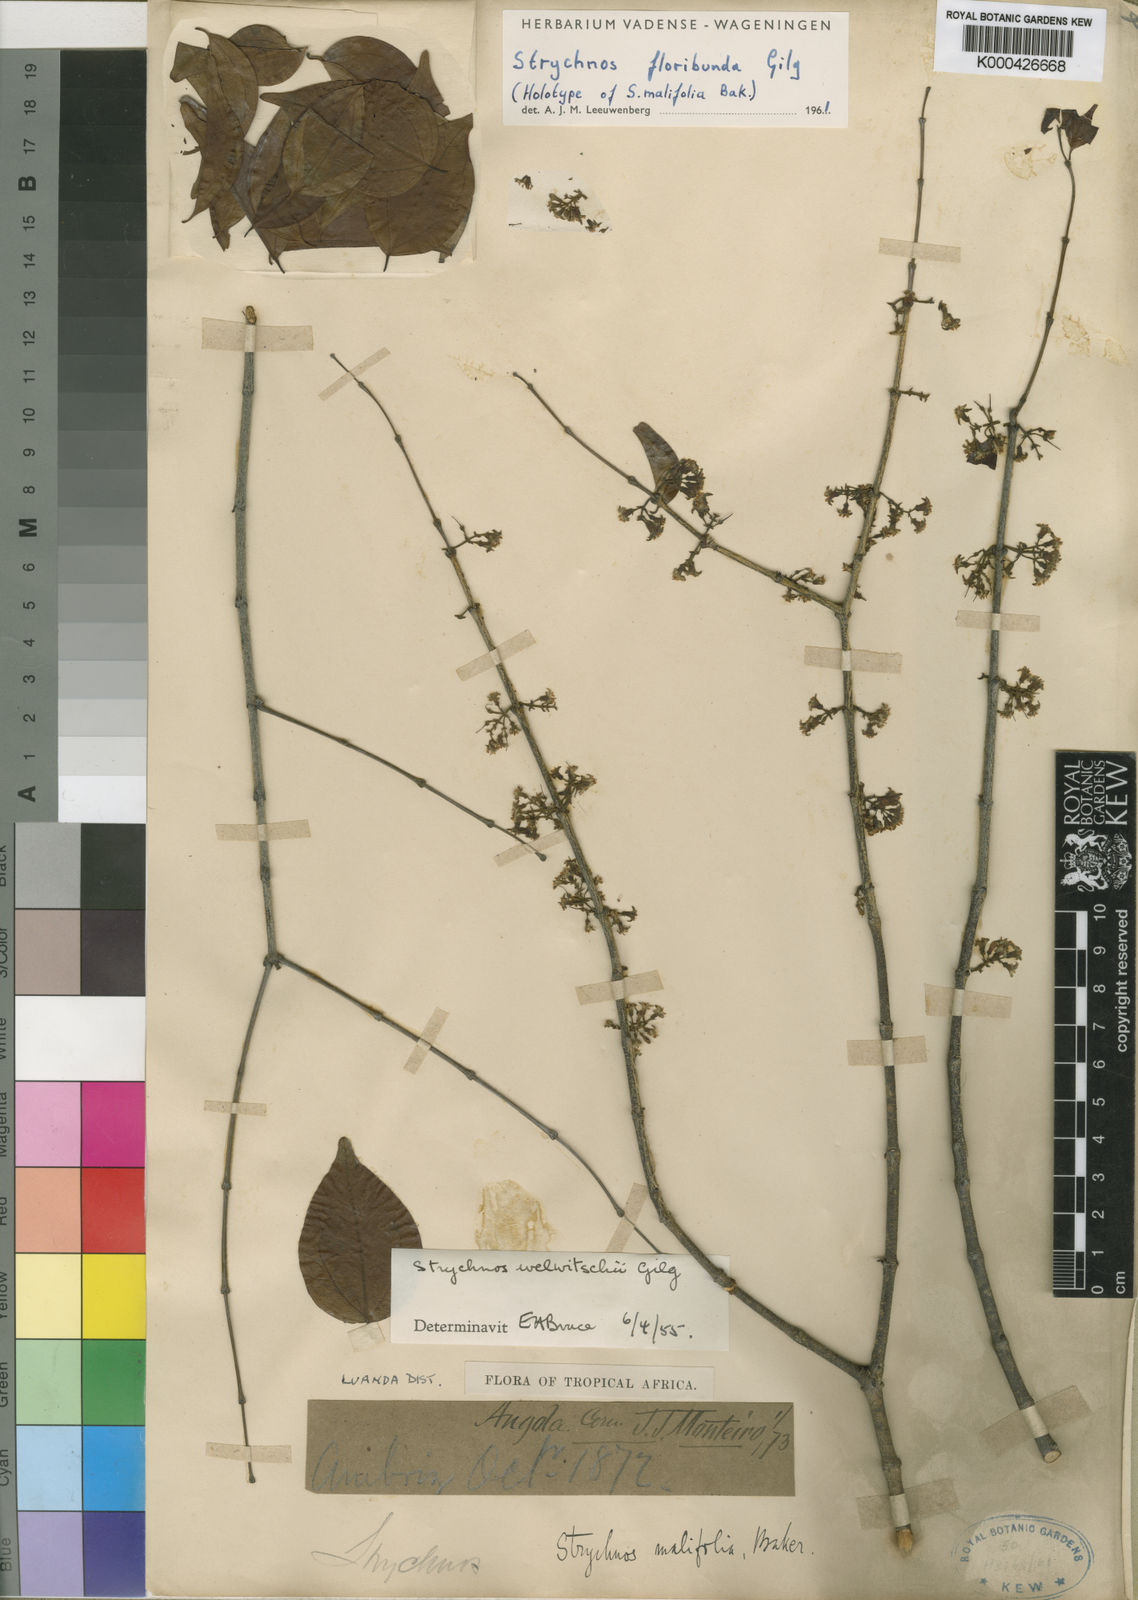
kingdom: Plantae
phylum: Tracheophyta
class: Magnoliopsida
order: Gentianales
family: Loganiaceae
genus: Strychnos
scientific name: Strychnos floribunda
